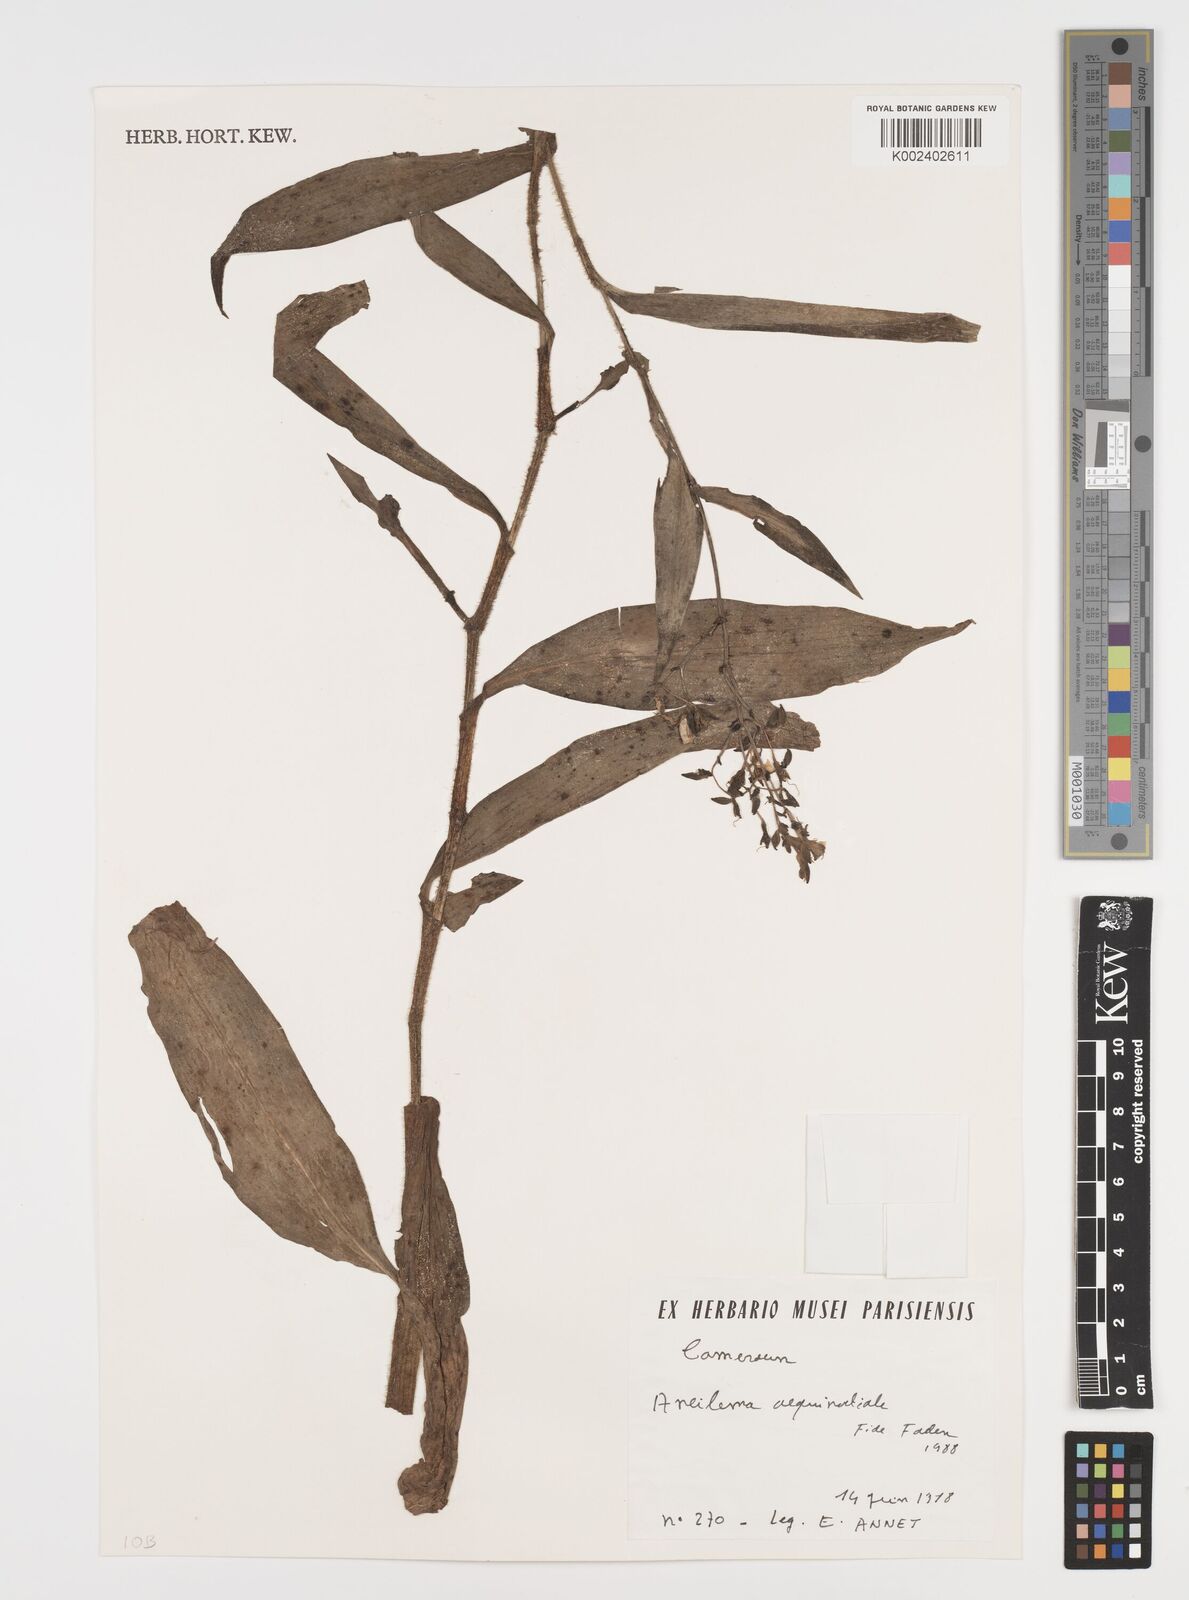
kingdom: Plantae
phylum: Tracheophyta
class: Liliopsida
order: Commelinales
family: Commelinaceae
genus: Aneilema
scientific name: Aneilema aequinoctiale
